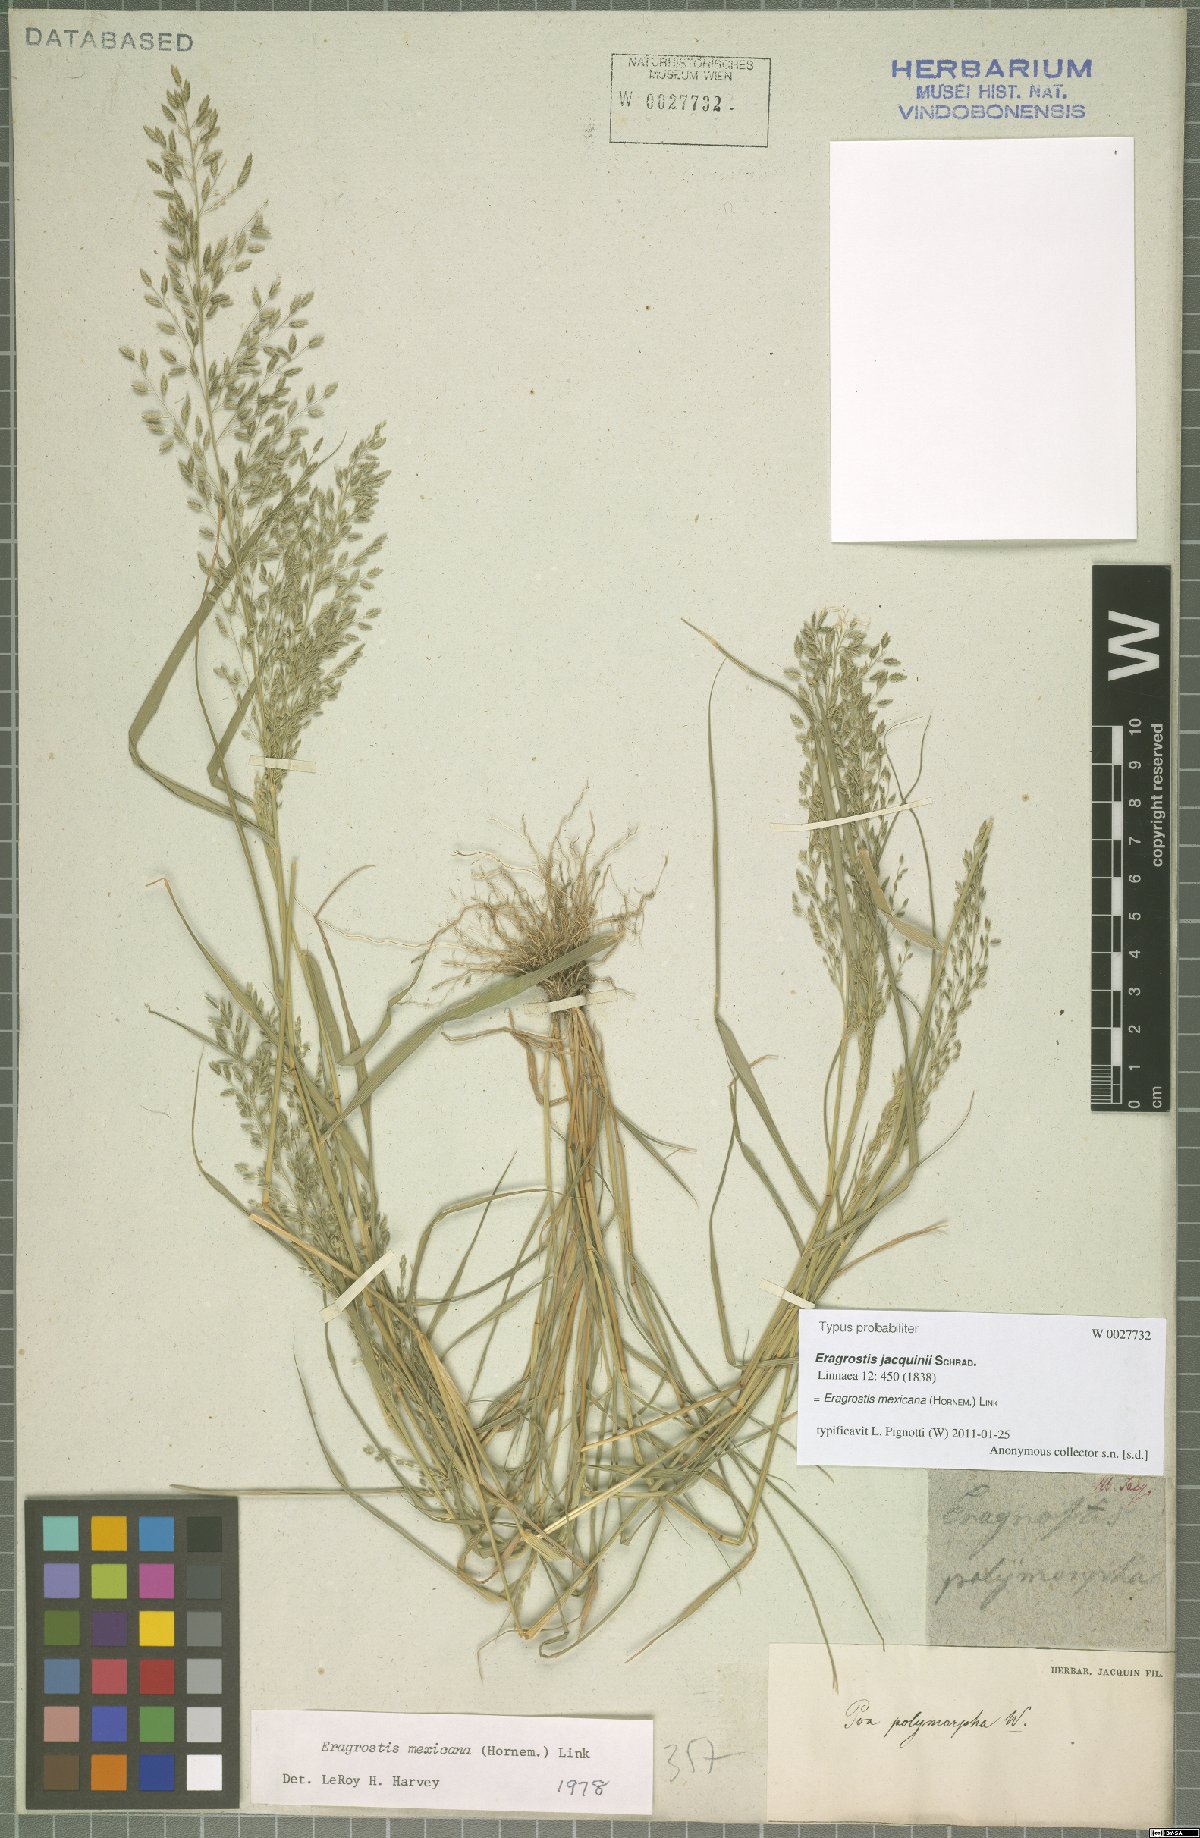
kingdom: Plantae
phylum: Tracheophyta
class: Liliopsida
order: Poales
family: Poaceae
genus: Eragrostis
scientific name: Eragrostis mexicana
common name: Mexican love grass
